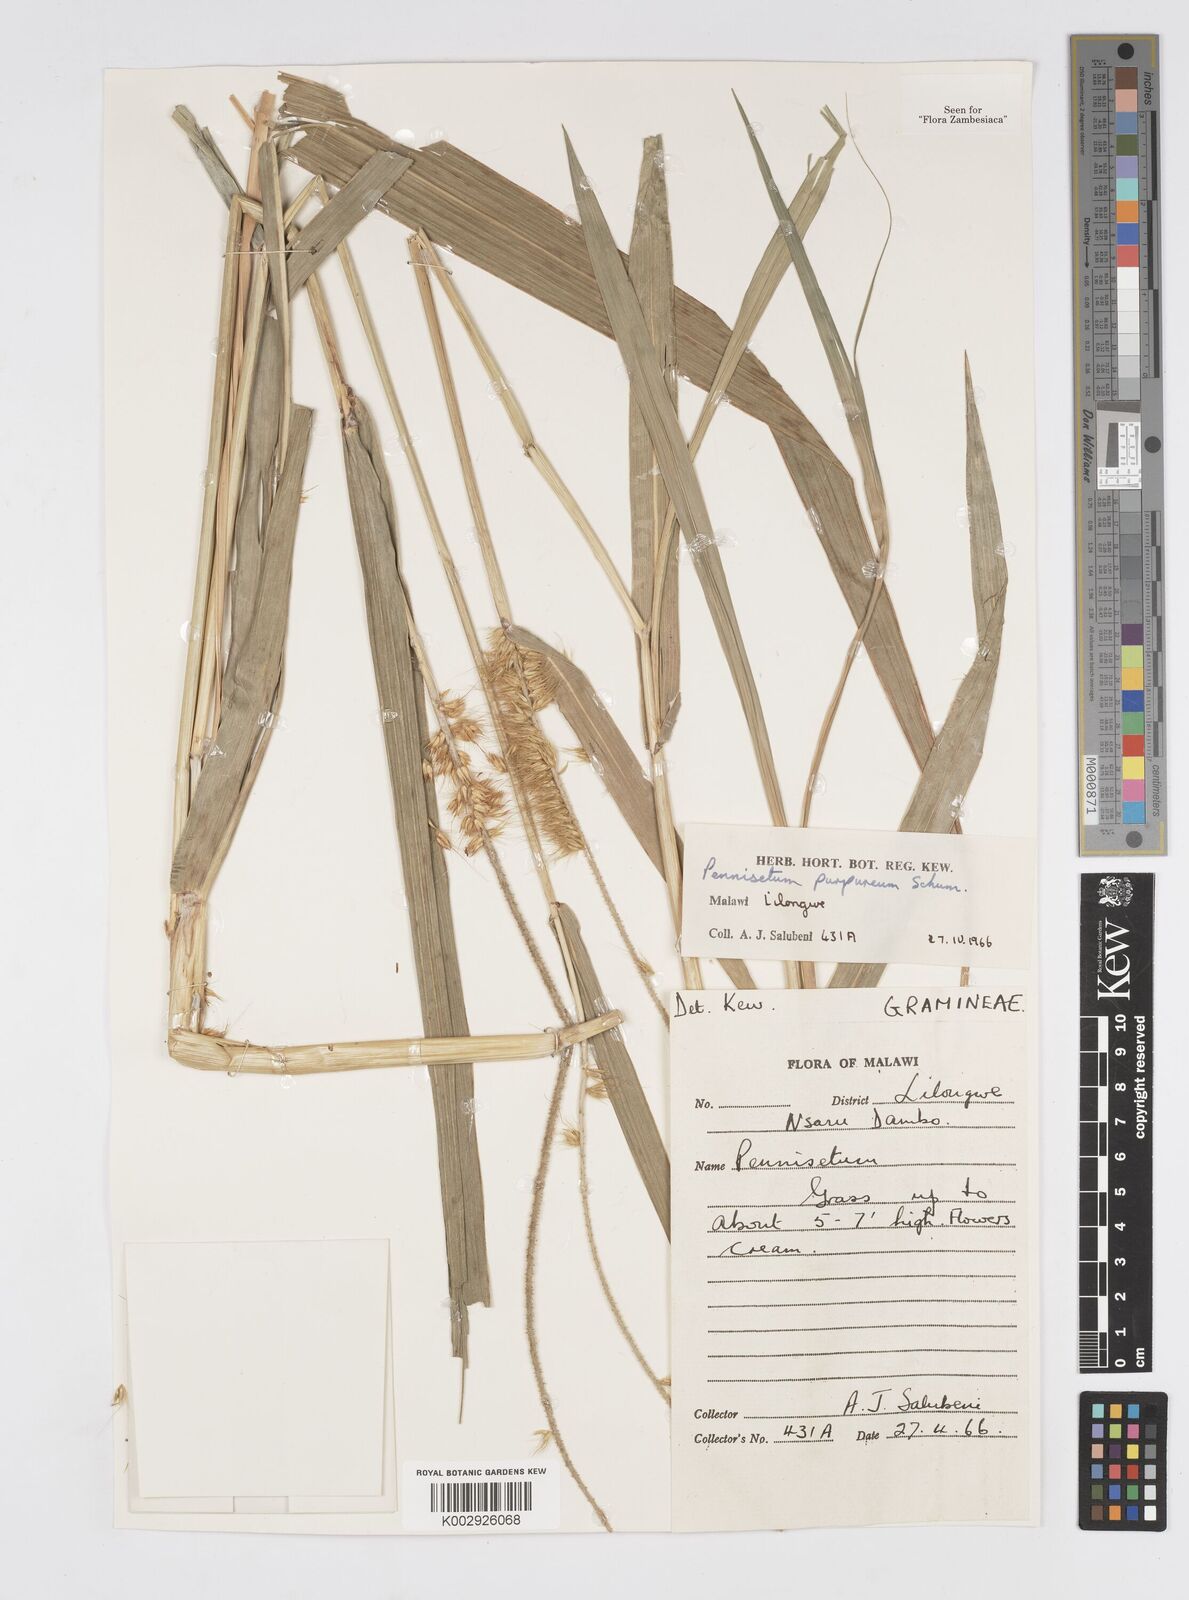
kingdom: Plantae
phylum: Tracheophyta
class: Liliopsida
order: Poales
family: Poaceae
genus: Cenchrus
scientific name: Cenchrus purpureus
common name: Elephant grass
